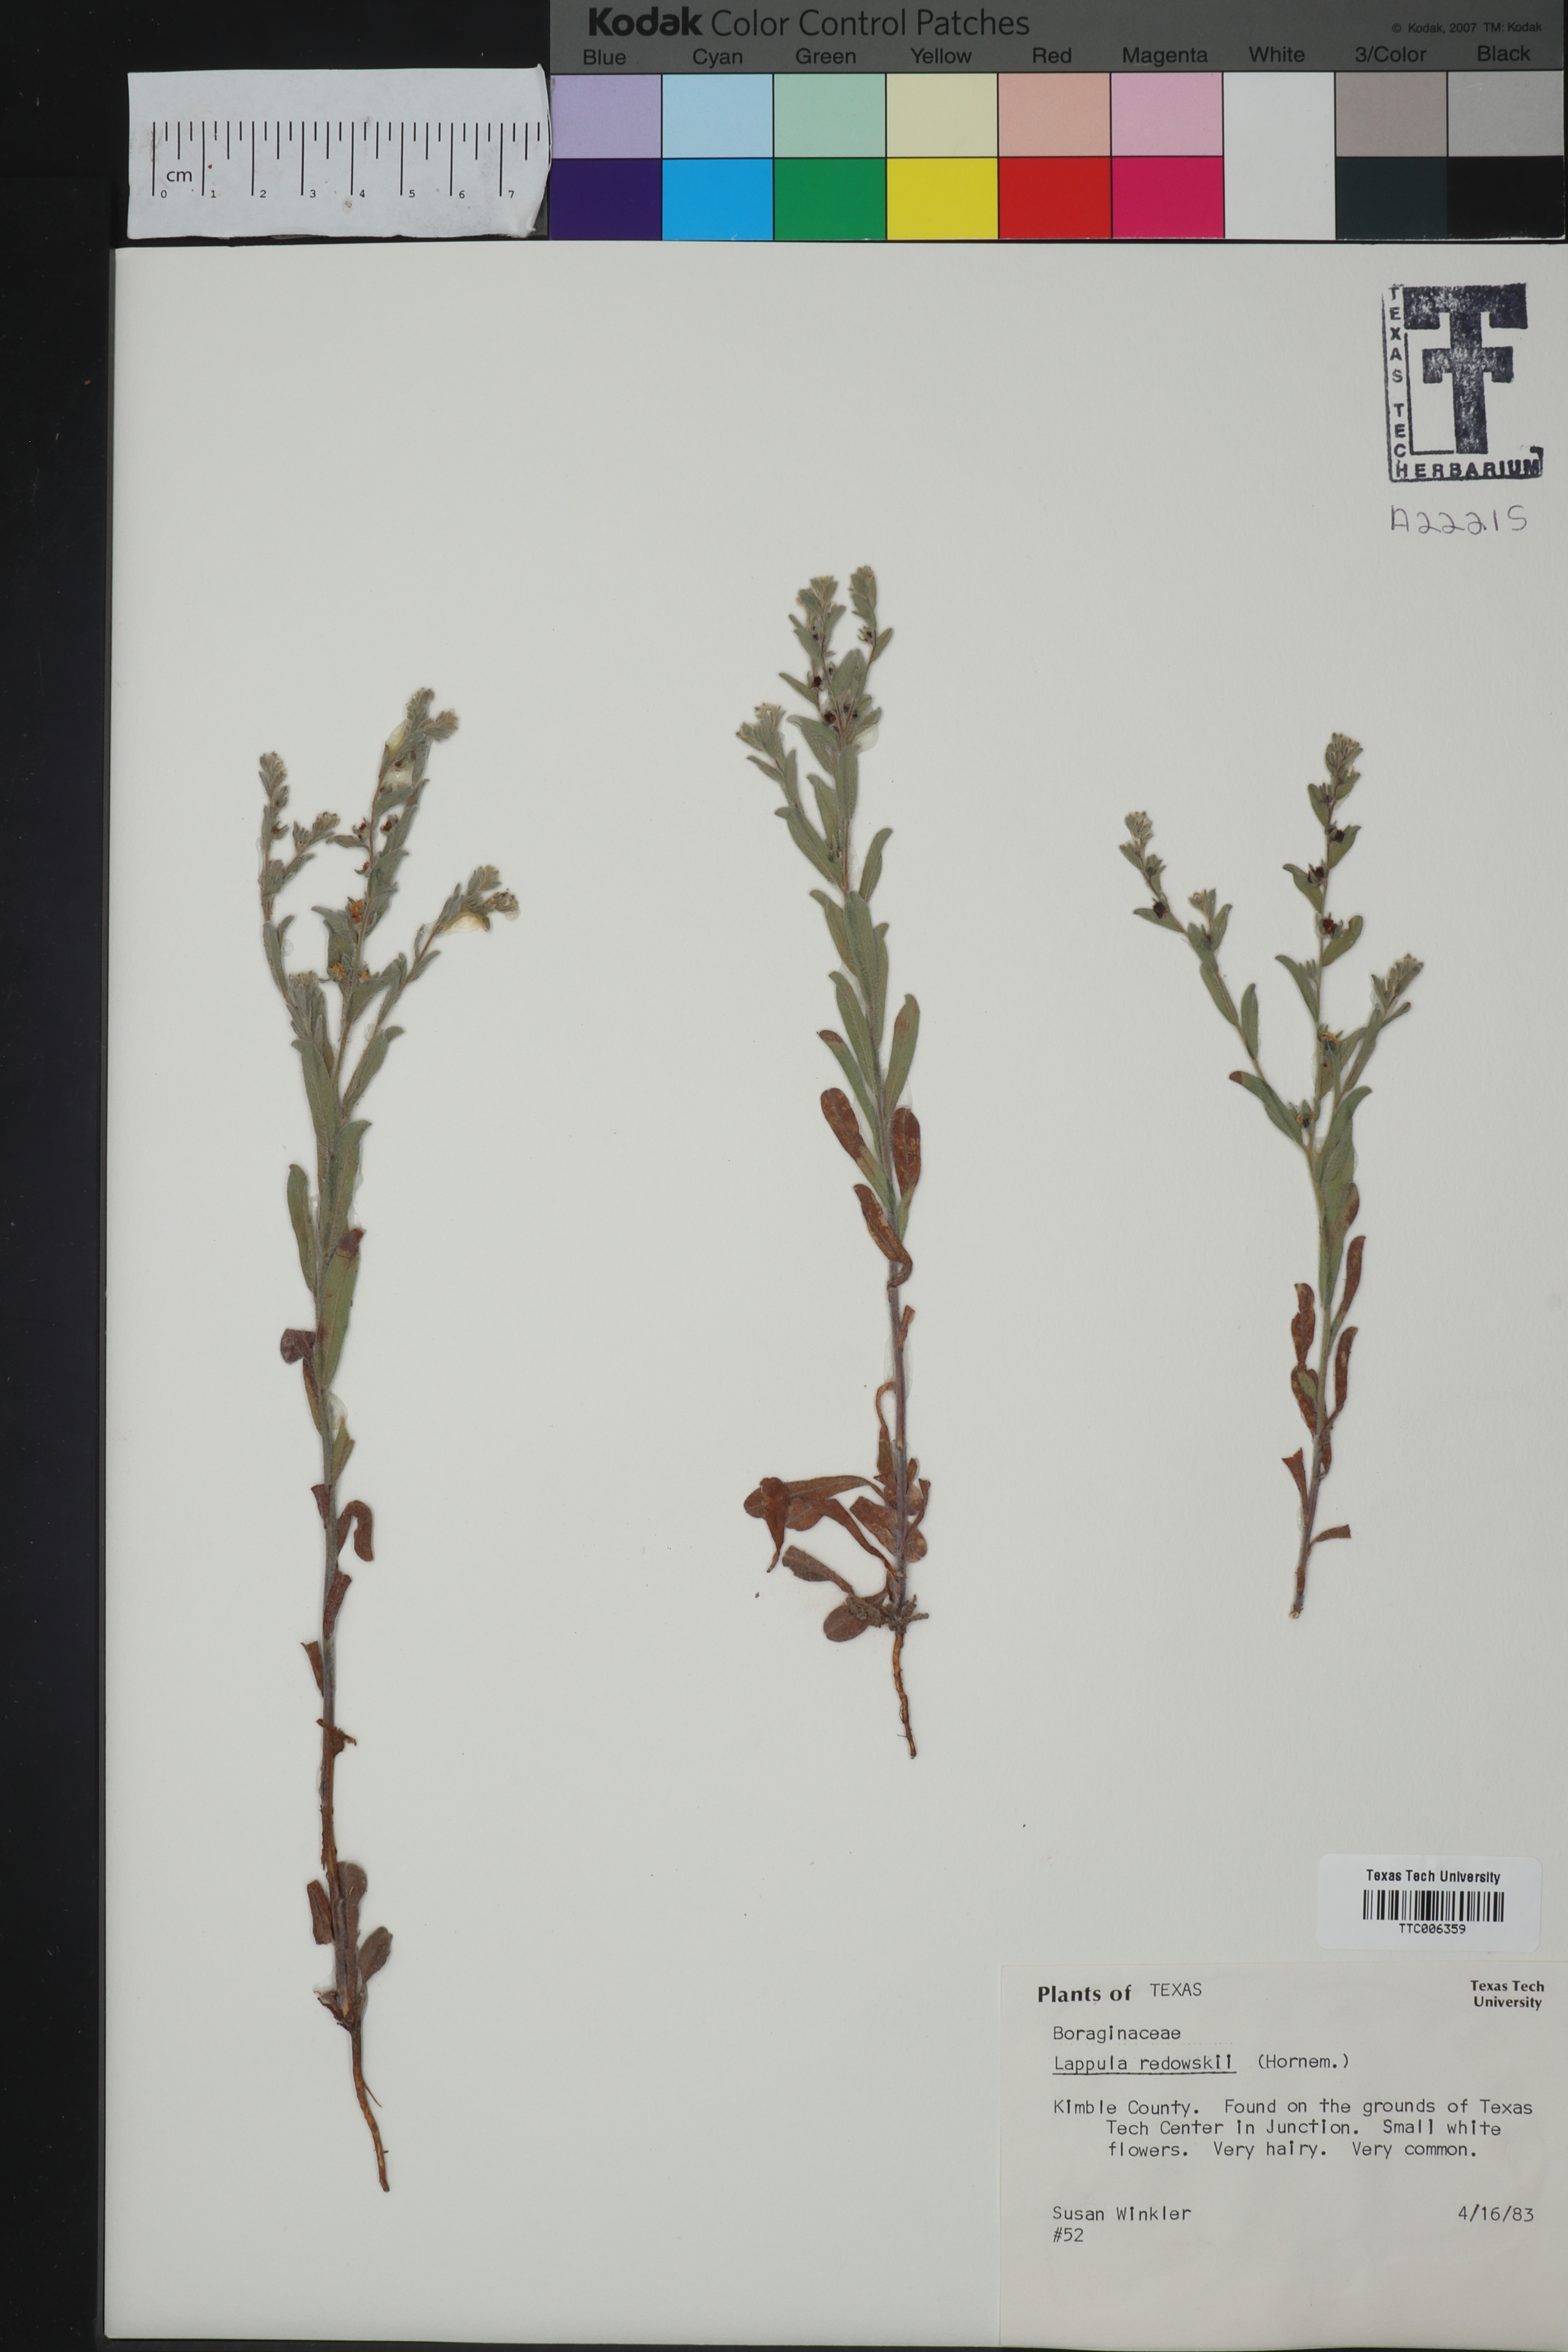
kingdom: Plantae
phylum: Tracheophyta
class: Magnoliopsida
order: Boraginales
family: Boraginaceae
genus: Lappula
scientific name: Lappula redowskii
